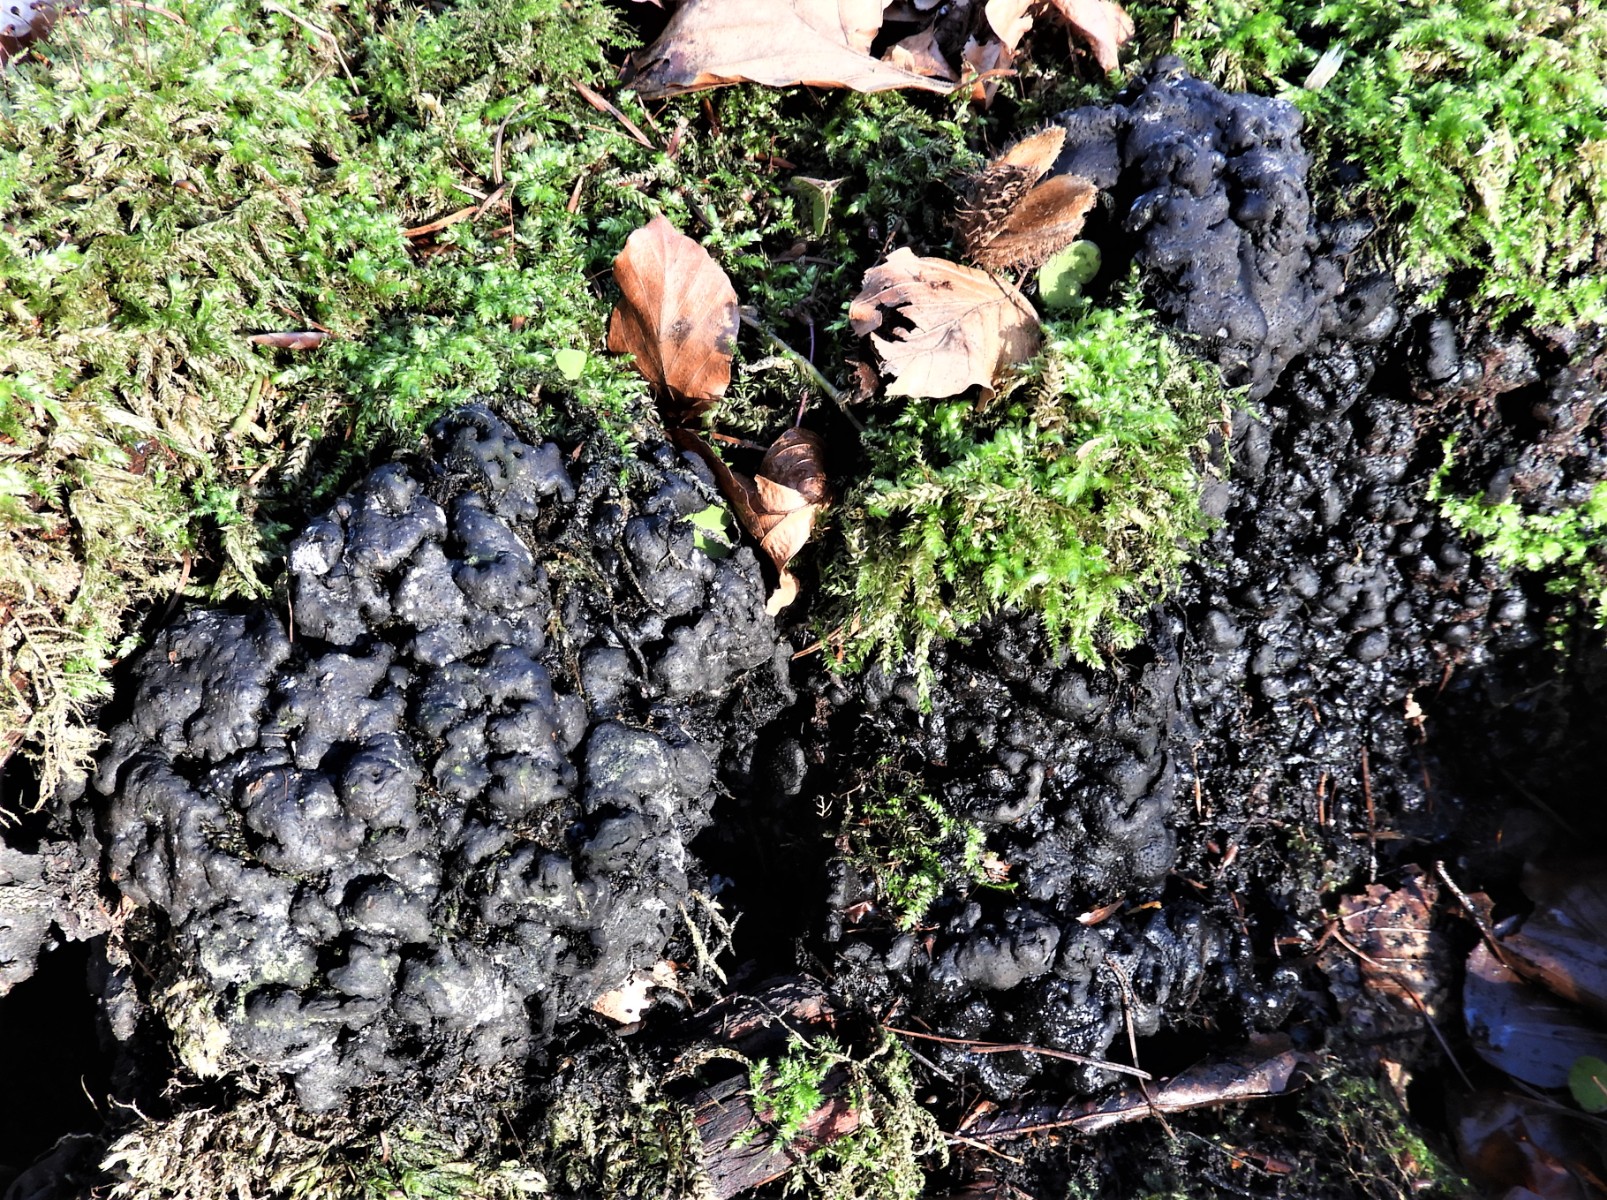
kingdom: Fungi
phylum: Ascomycota
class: Sordariomycetes
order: Xylariales
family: Xylariaceae
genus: Kretzschmaria
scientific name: Kretzschmaria deusta
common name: stor kulsvamp
